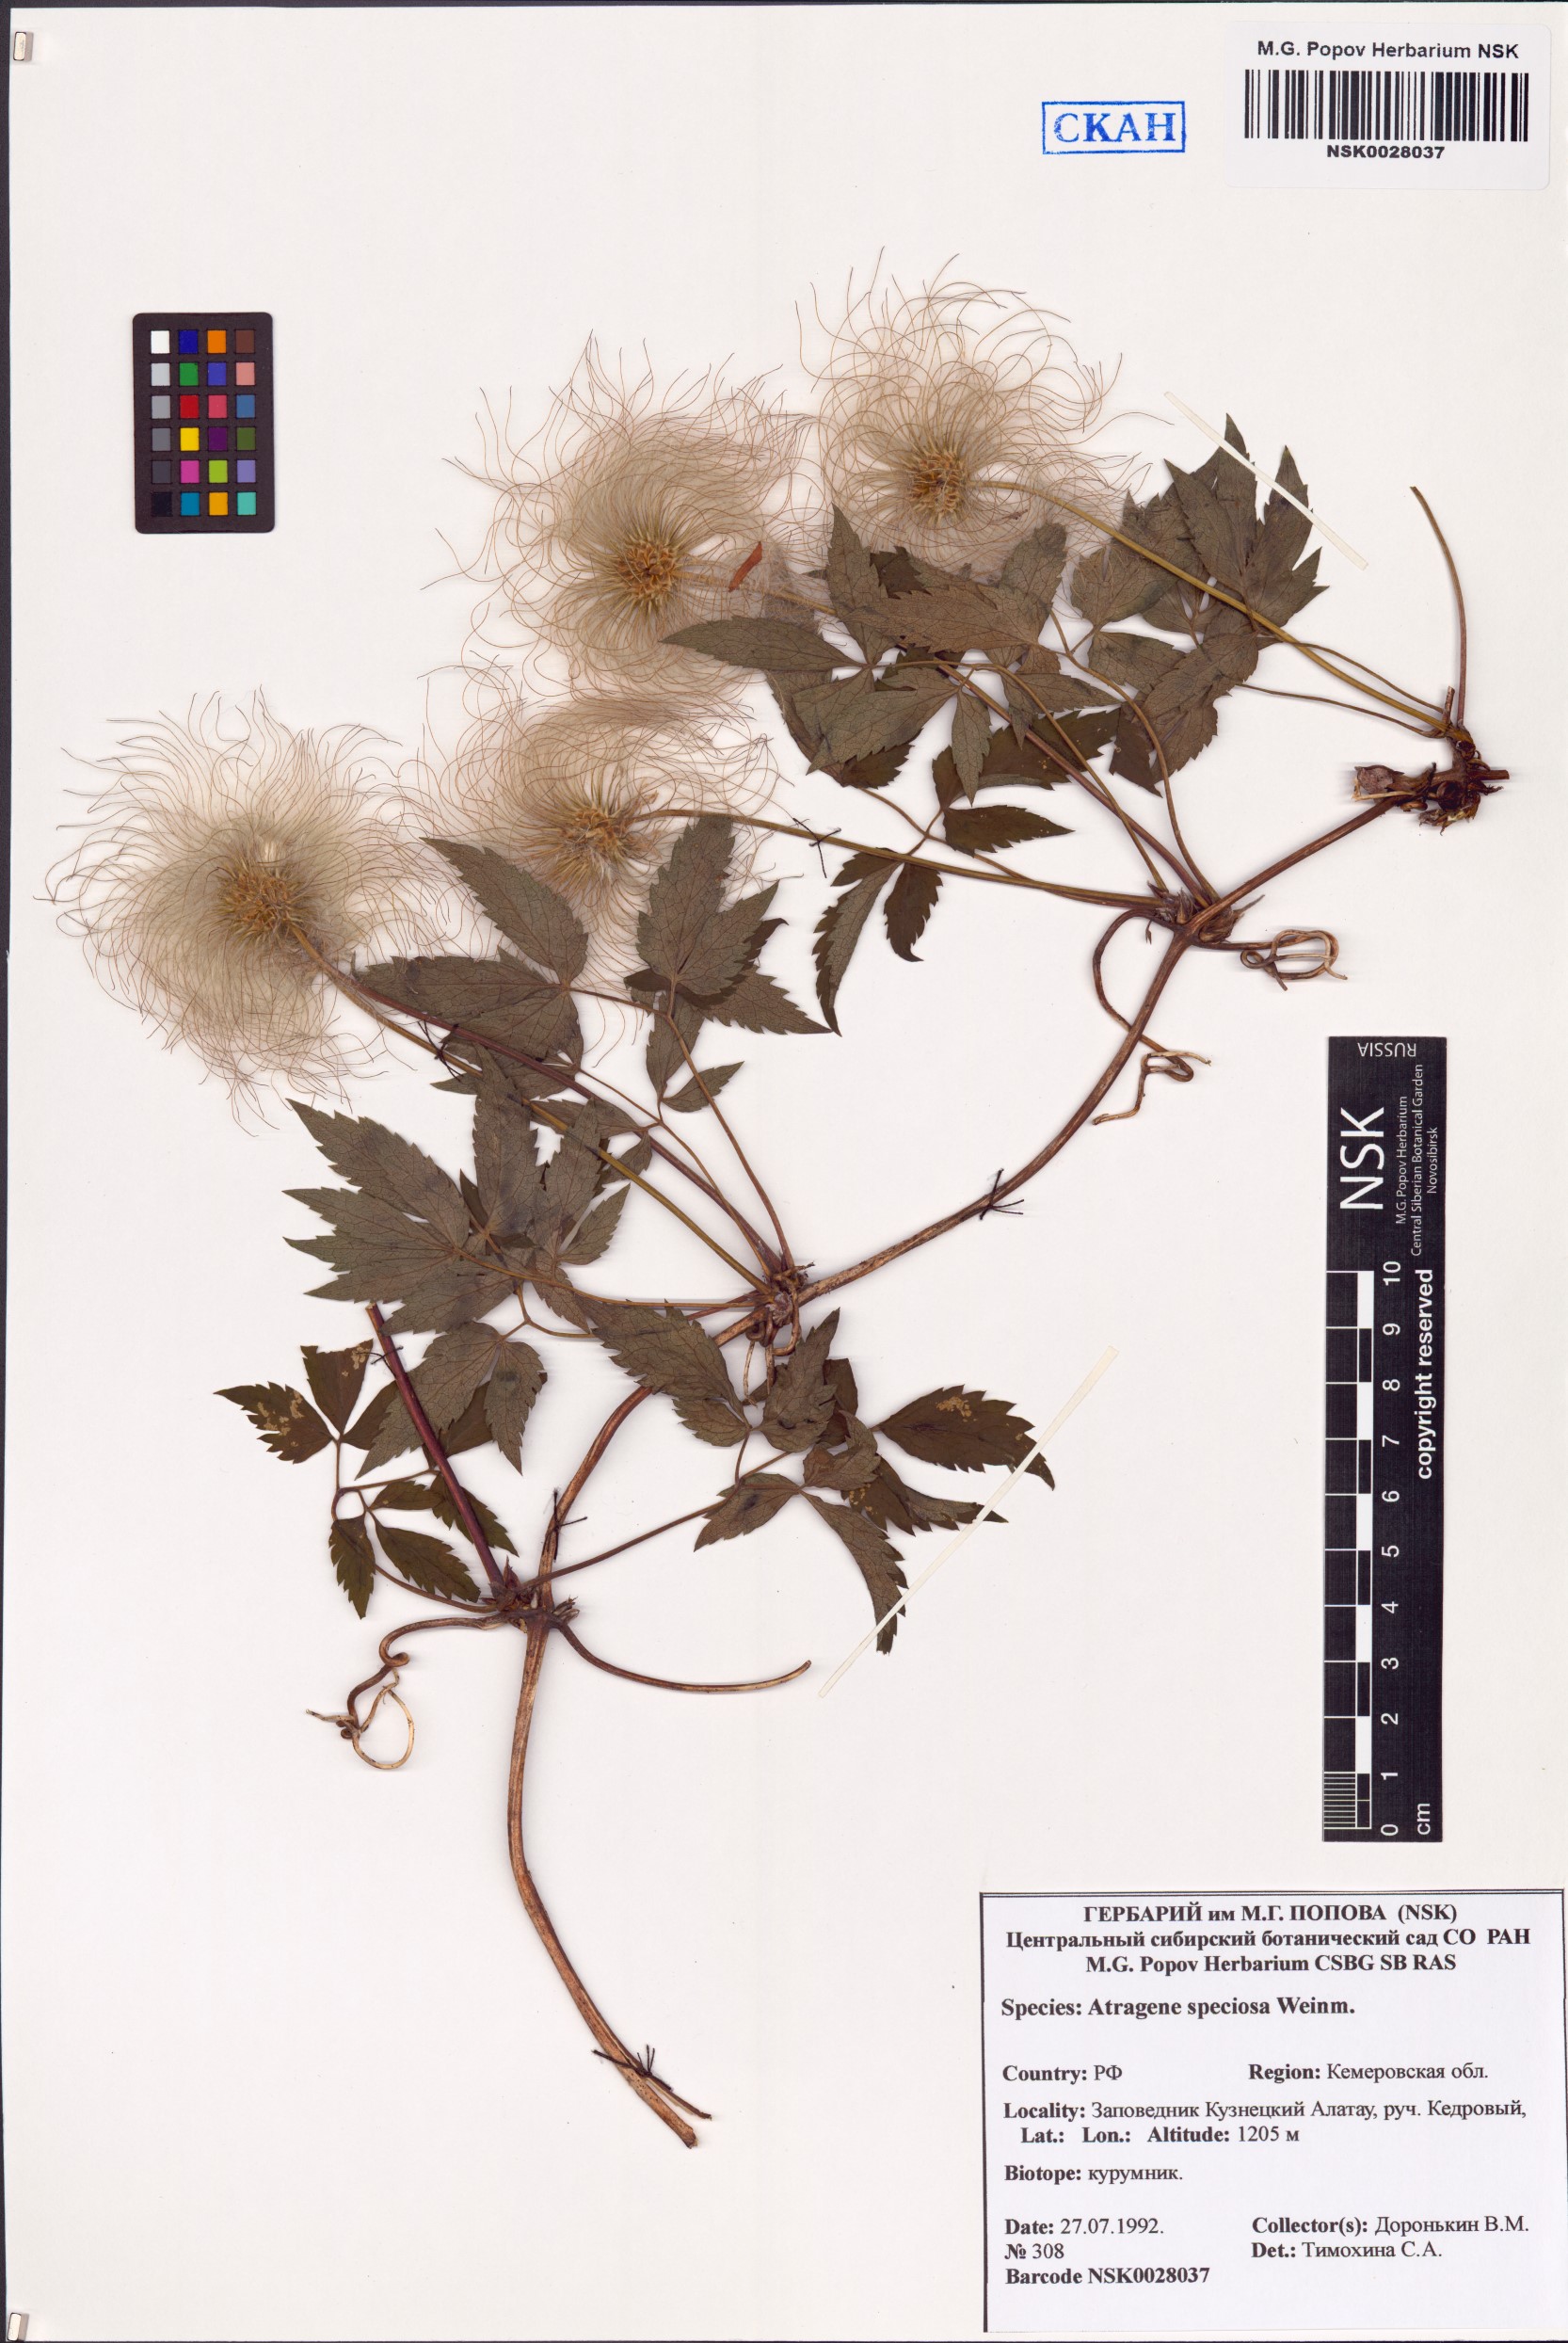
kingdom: Plantae
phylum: Tracheophyta
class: Magnoliopsida
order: Ranunculales
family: Ranunculaceae
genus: Clematis
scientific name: Clematis sibirica
